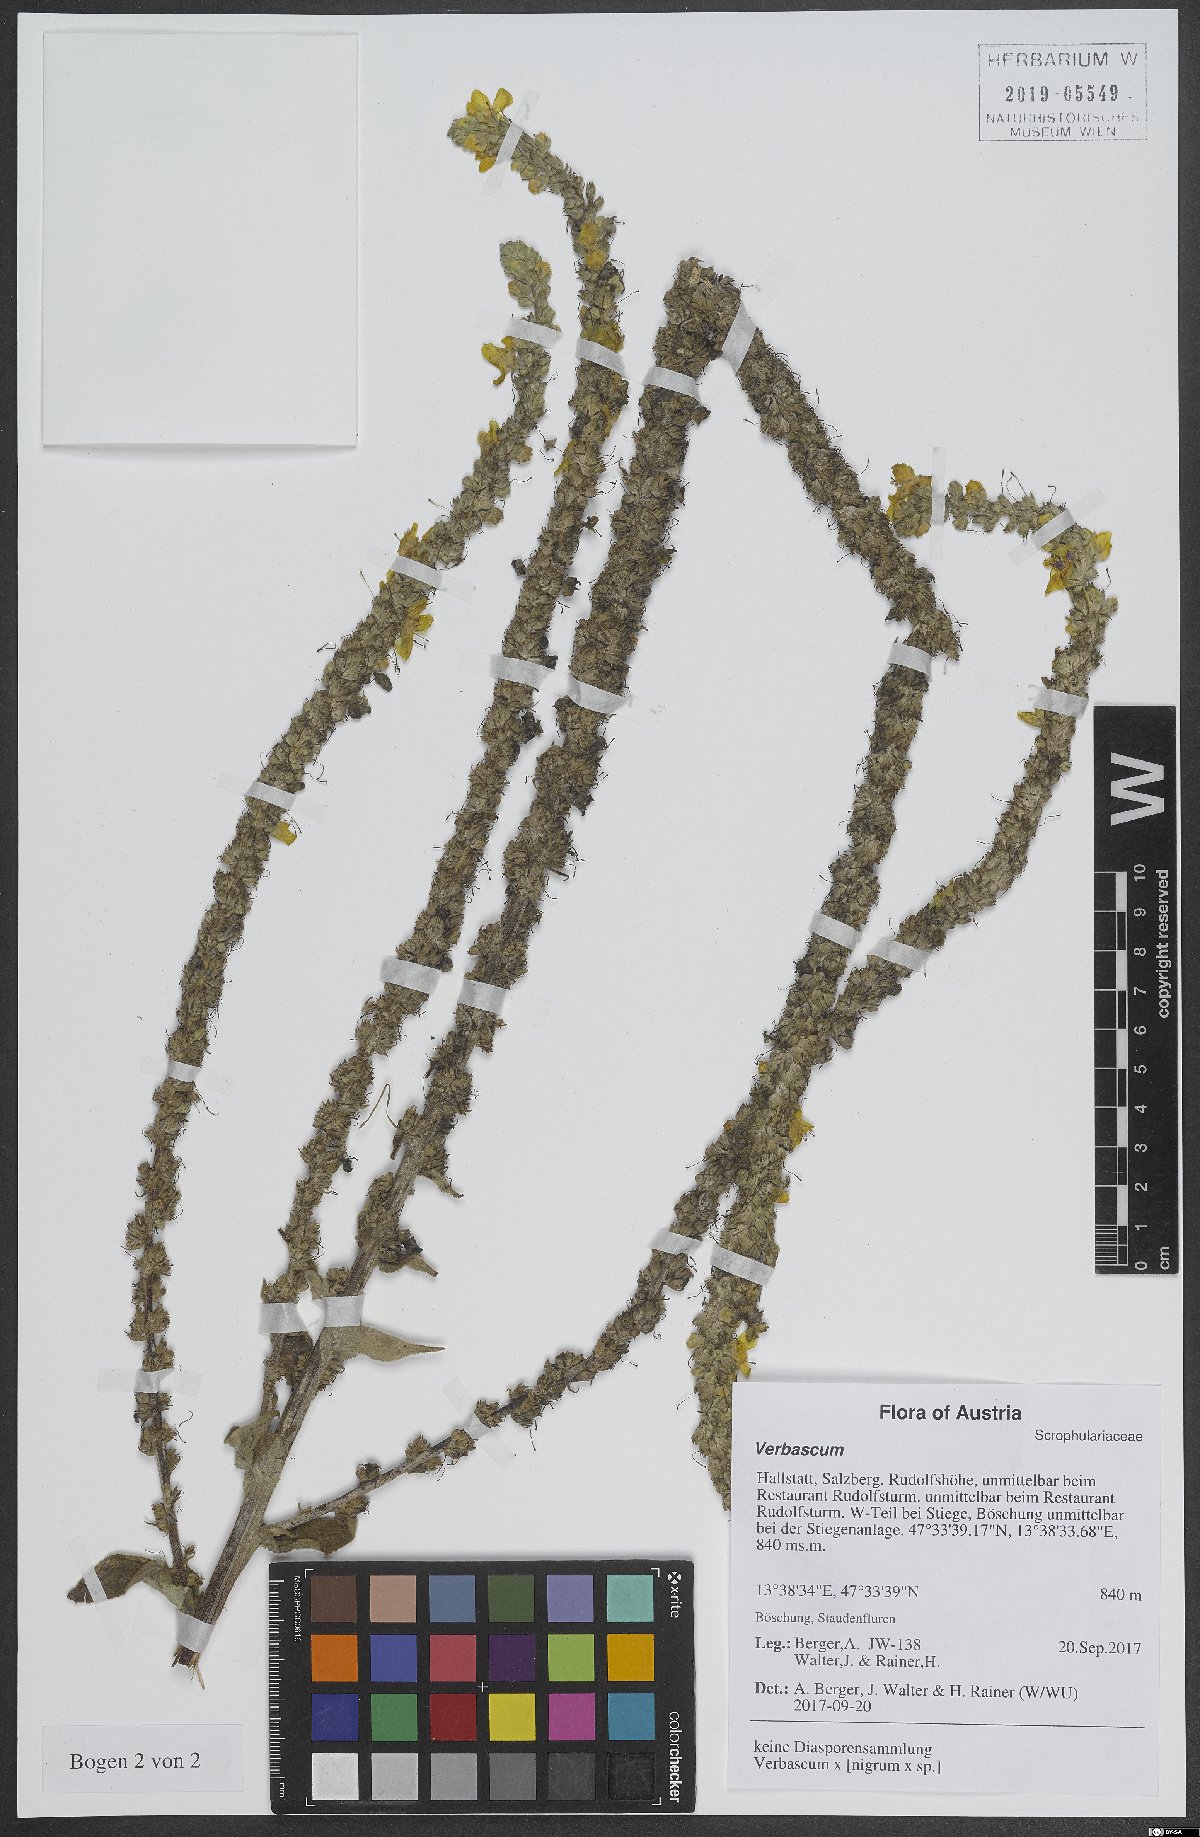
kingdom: Plantae
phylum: Tracheophyta
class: Magnoliopsida
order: Lamiales
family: Scrophulariaceae
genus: Verbascum
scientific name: Verbascum
